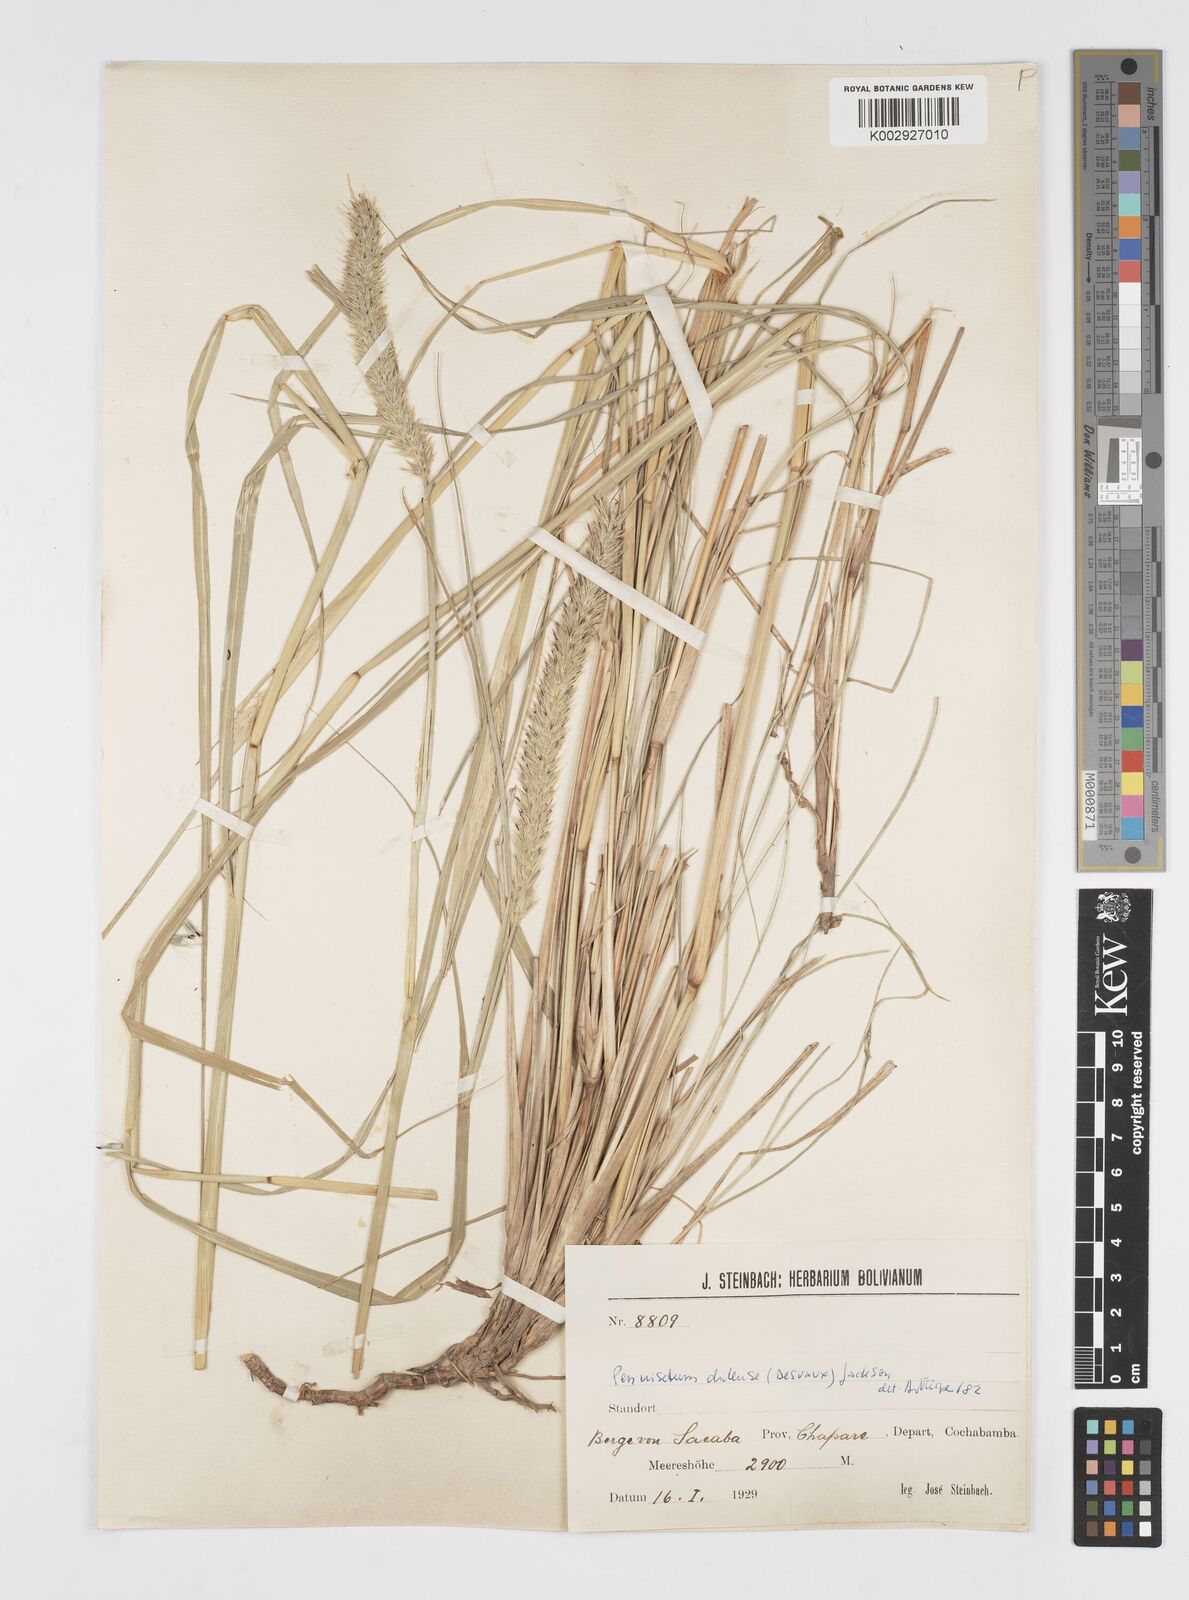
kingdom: Plantae
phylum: Tracheophyta
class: Liliopsida
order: Poales
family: Poaceae
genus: Cenchrus
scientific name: Cenchrus chilensis
